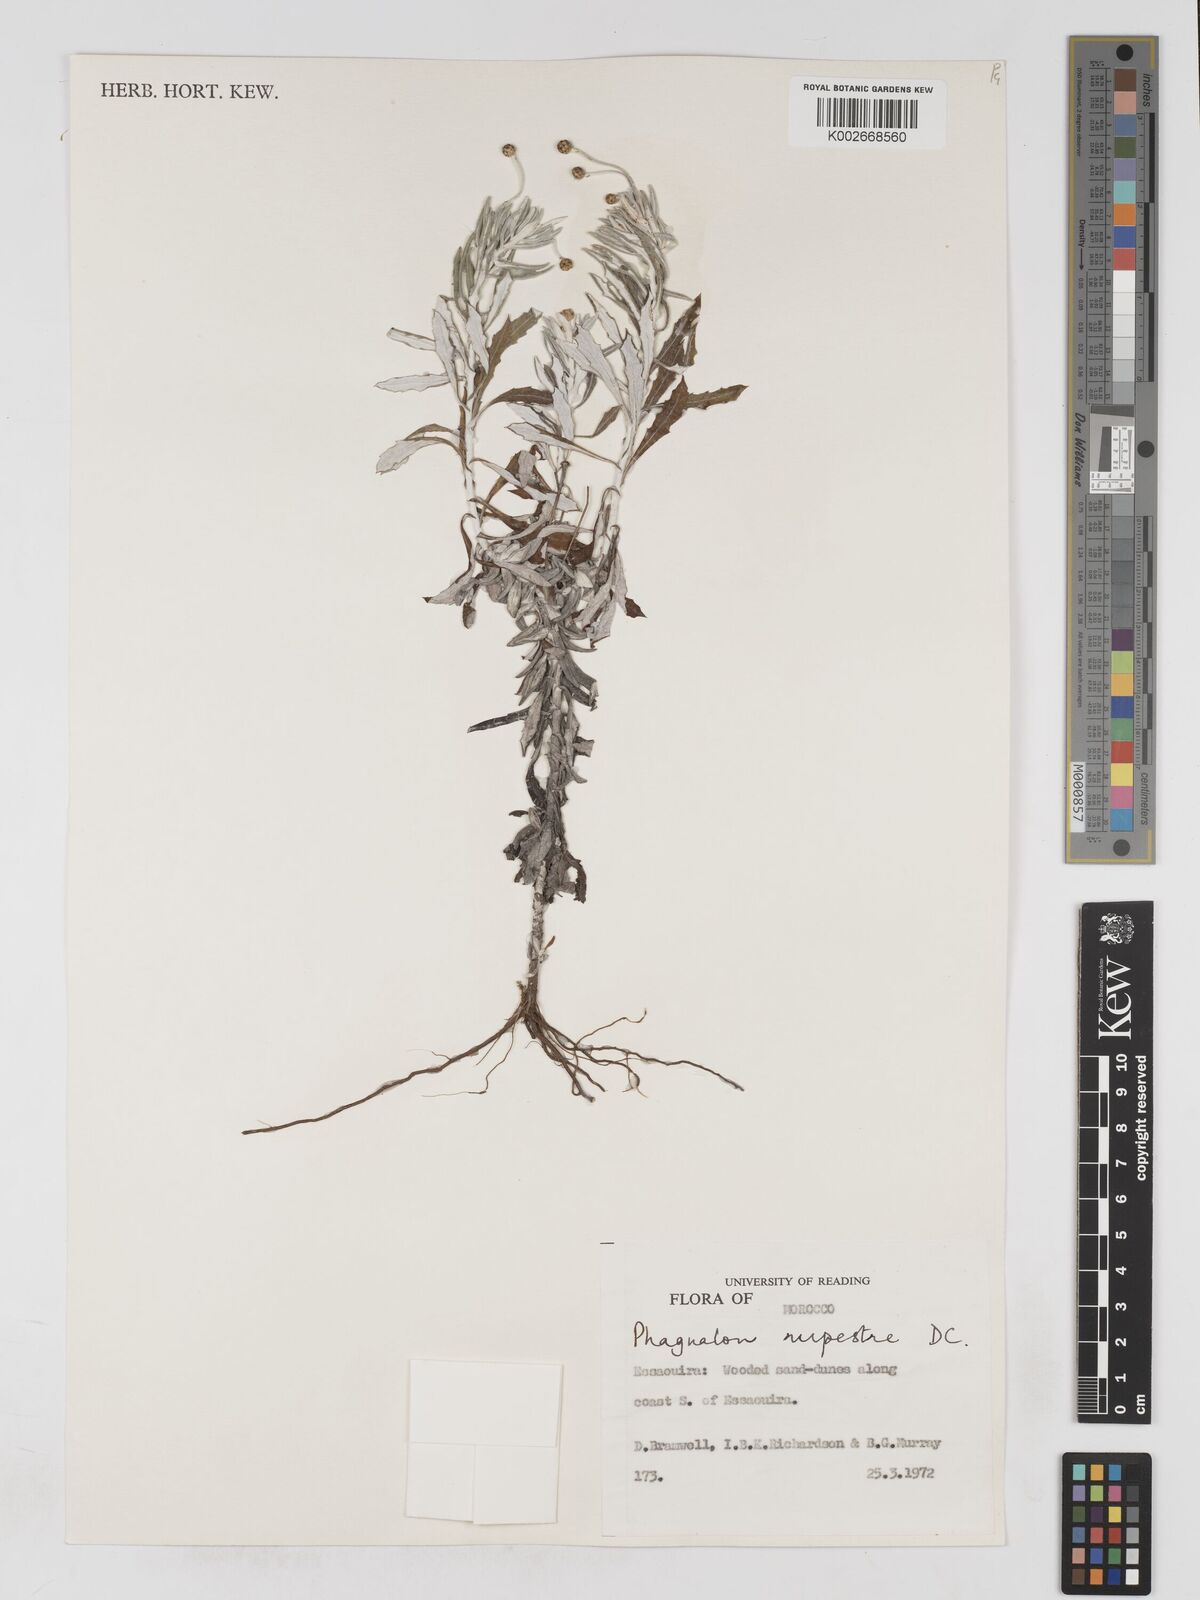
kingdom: Plantae
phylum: Tracheophyta
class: Magnoliopsida
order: Asterales
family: Asteraceae
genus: Phagnalon
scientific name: Phagnalon rupestre
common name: Rock phagnalon
